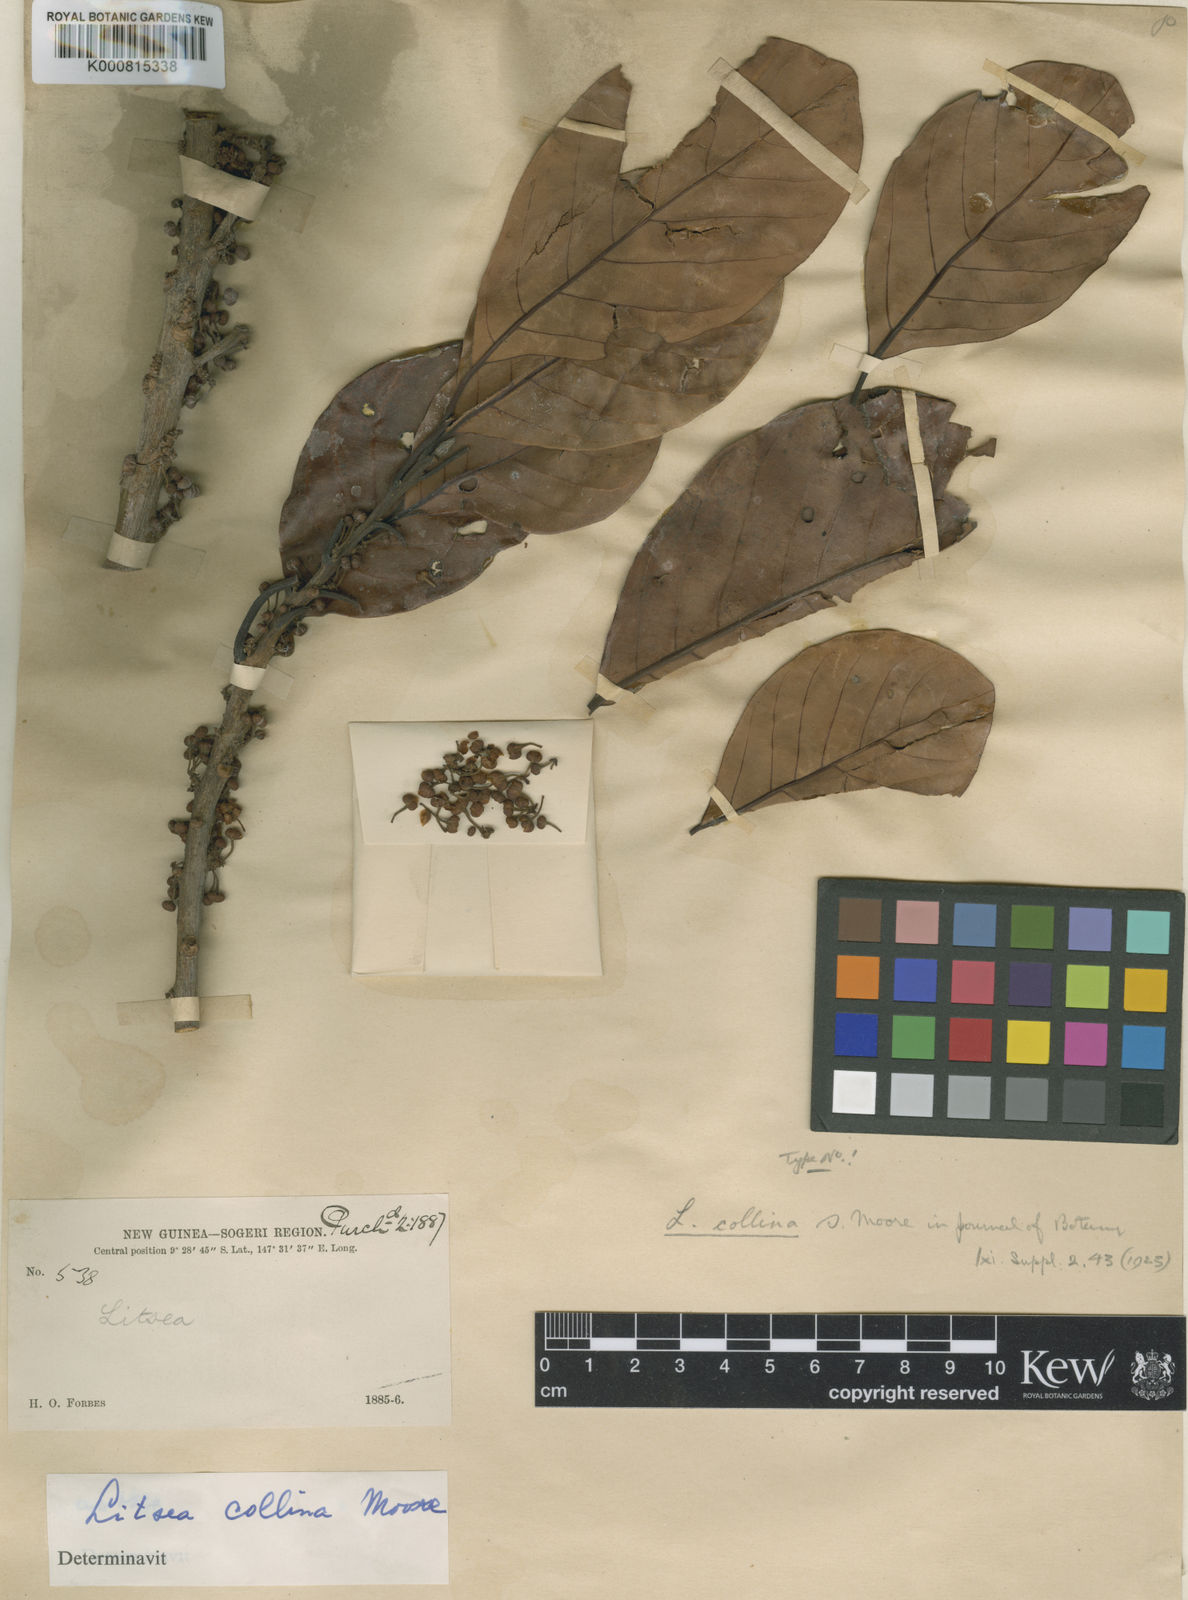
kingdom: Plantae
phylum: Tracheophyta
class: Magnoliopsida
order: Laurales
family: Lauraceae
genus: Litsea
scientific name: Litsea collina
